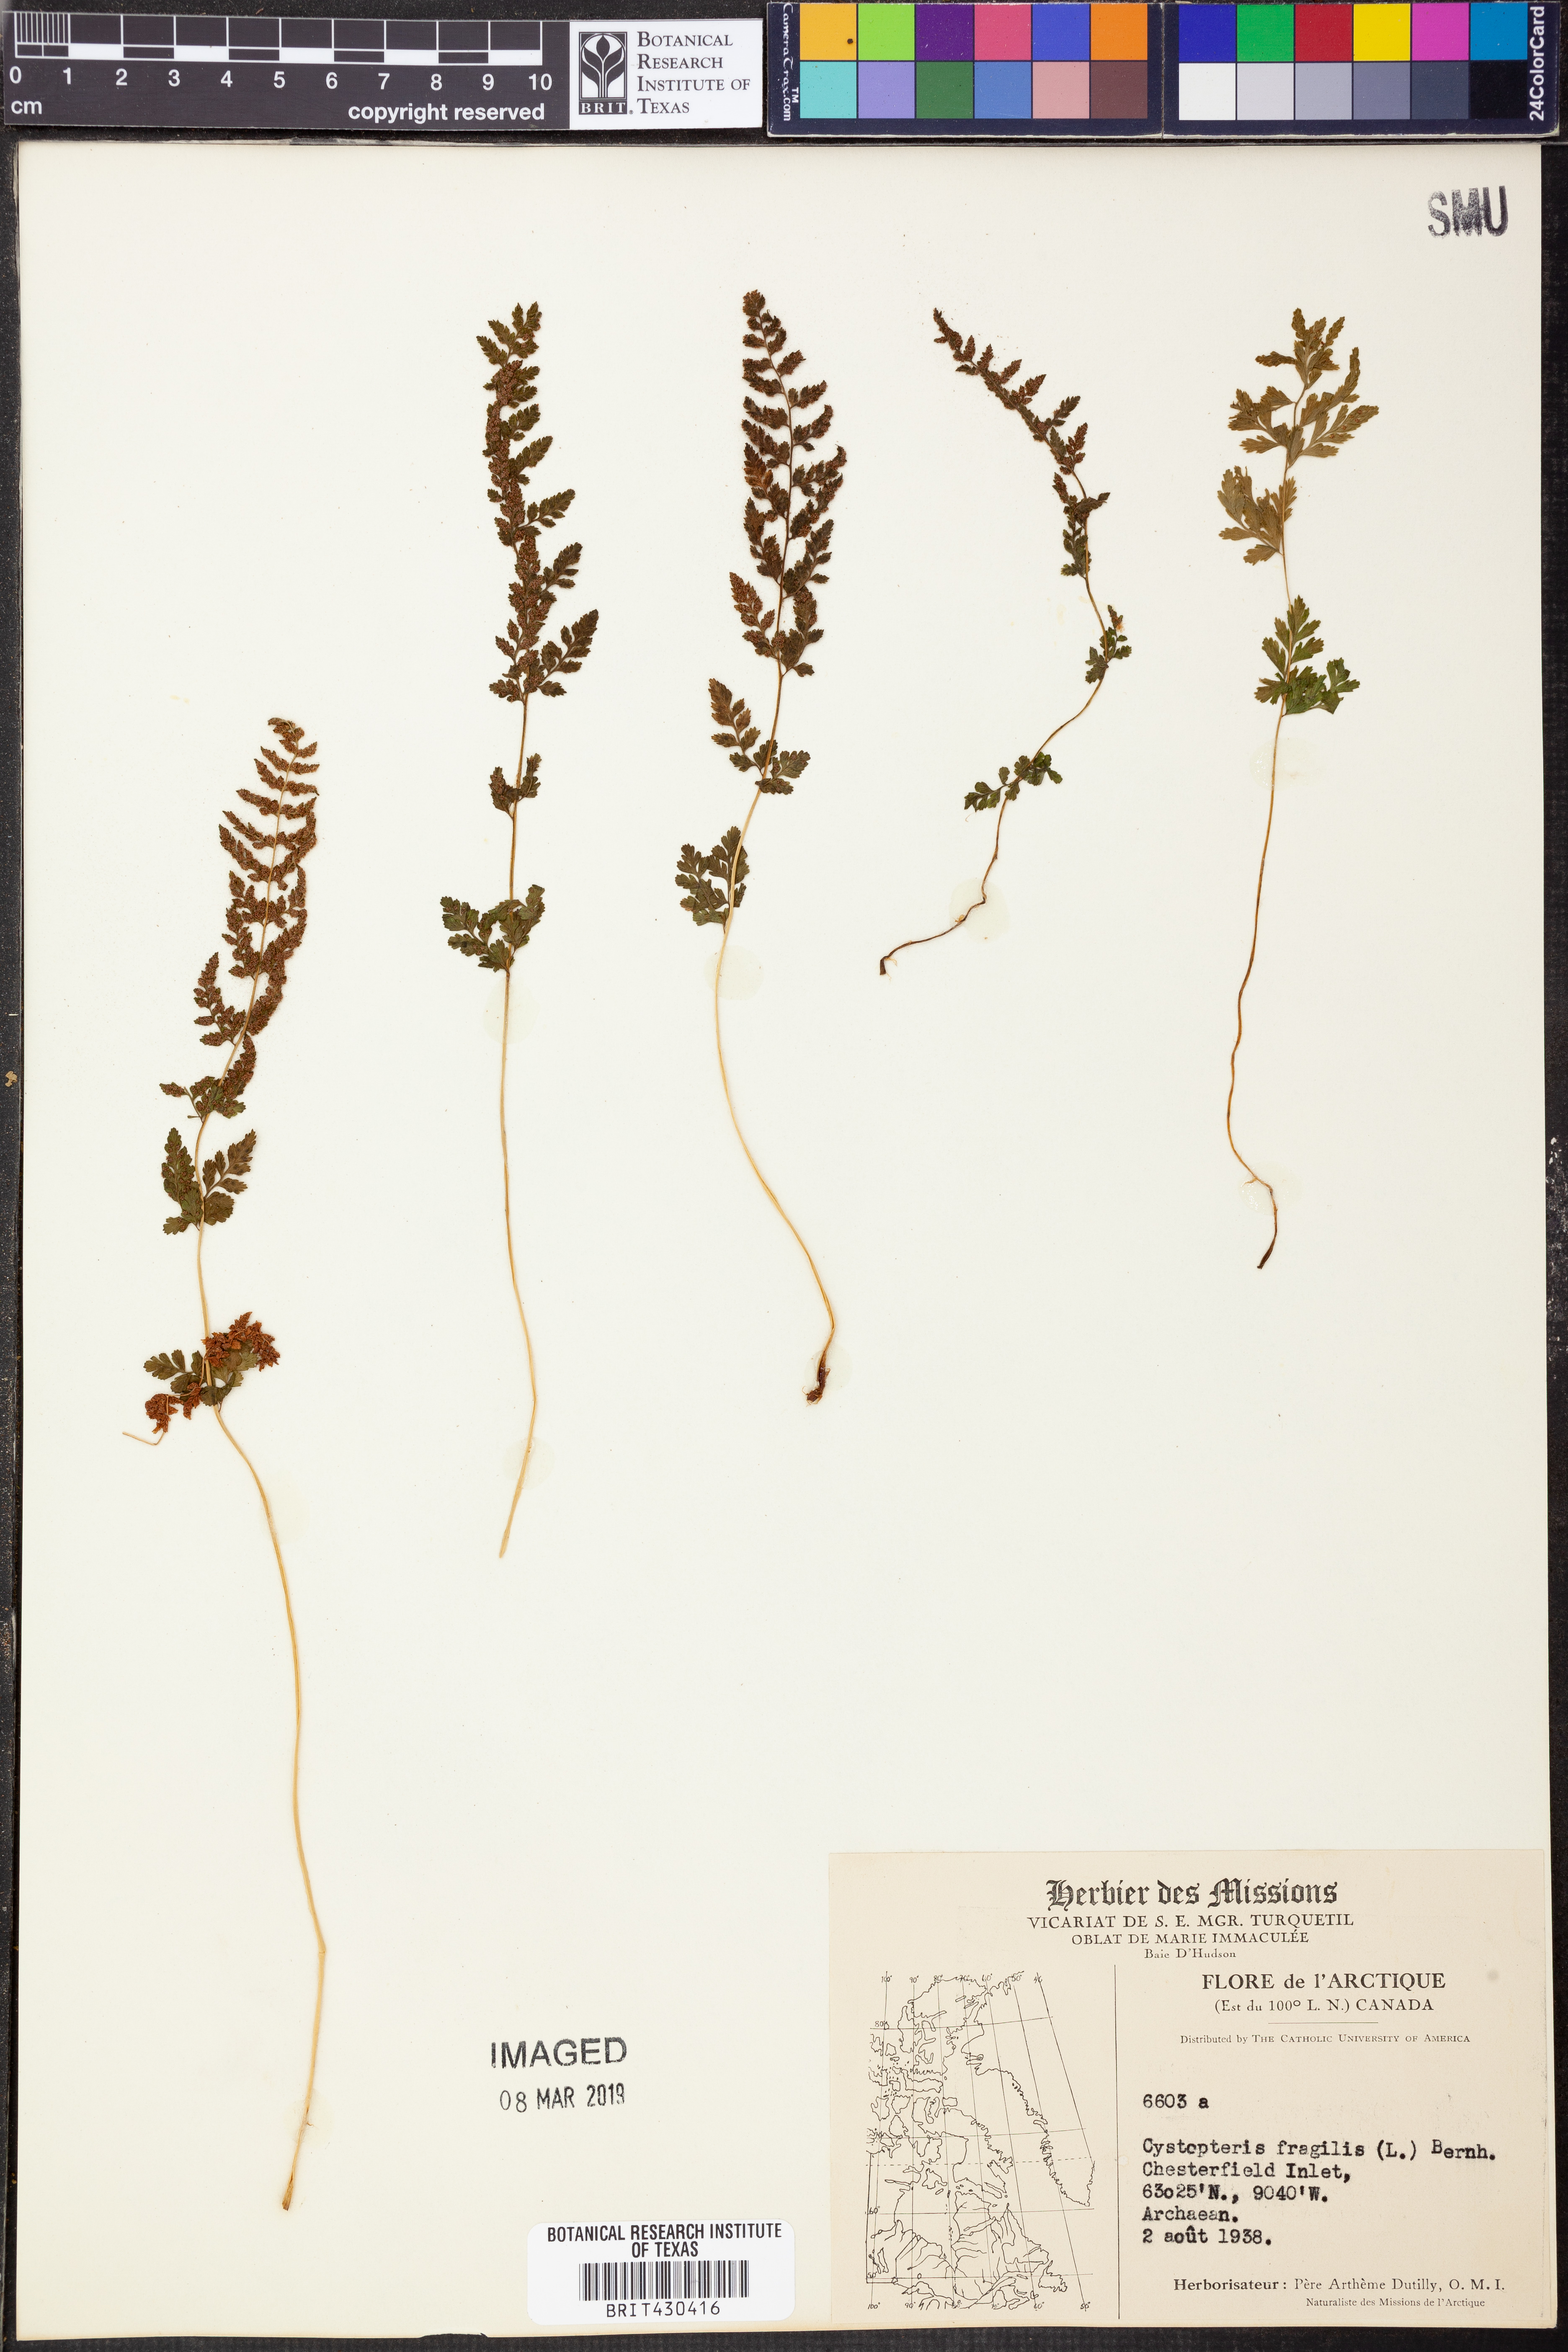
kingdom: Plantae
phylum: Tracheophyta
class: Polypodiopsida
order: Polypodiales
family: Cystopteridaceae
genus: Cystopteris
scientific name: Cystopteris fragilis
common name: Brittle bladder fern
